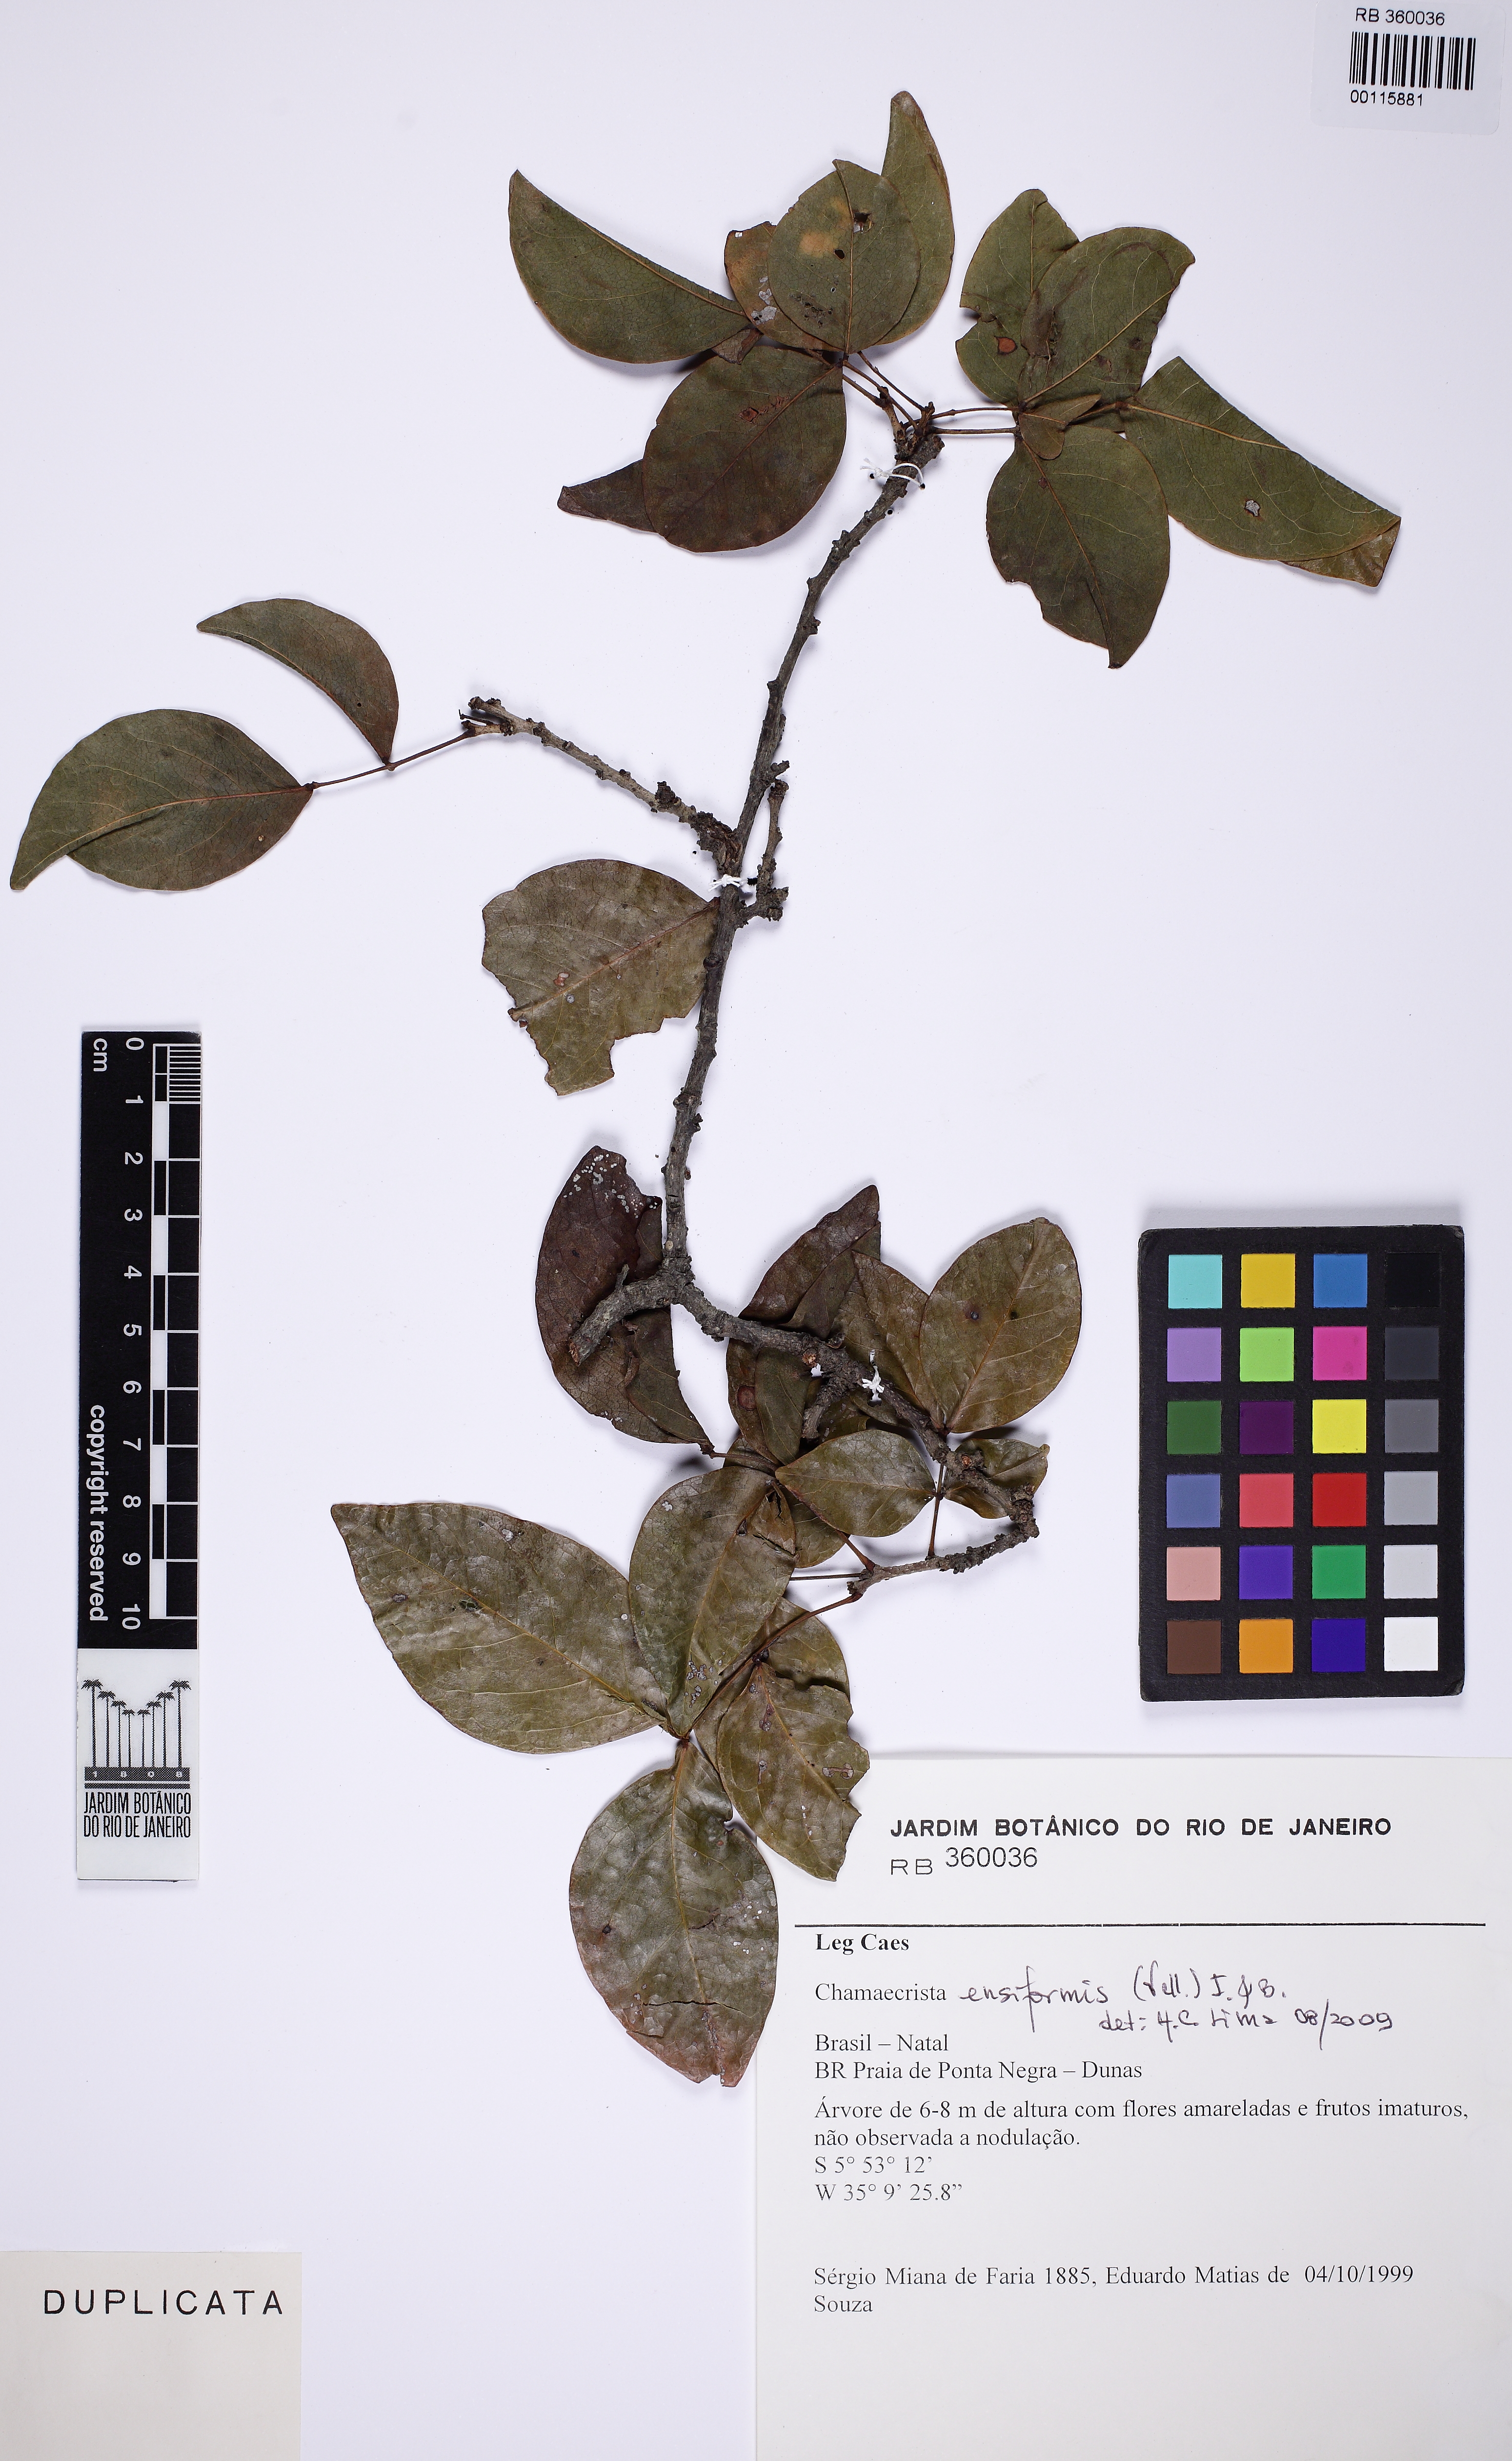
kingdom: Plantae
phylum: Tracheophyta
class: Magnoliopsida
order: Fabales
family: Fabaceae
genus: Chamaecrista
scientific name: Chamaecrista ensiformis
